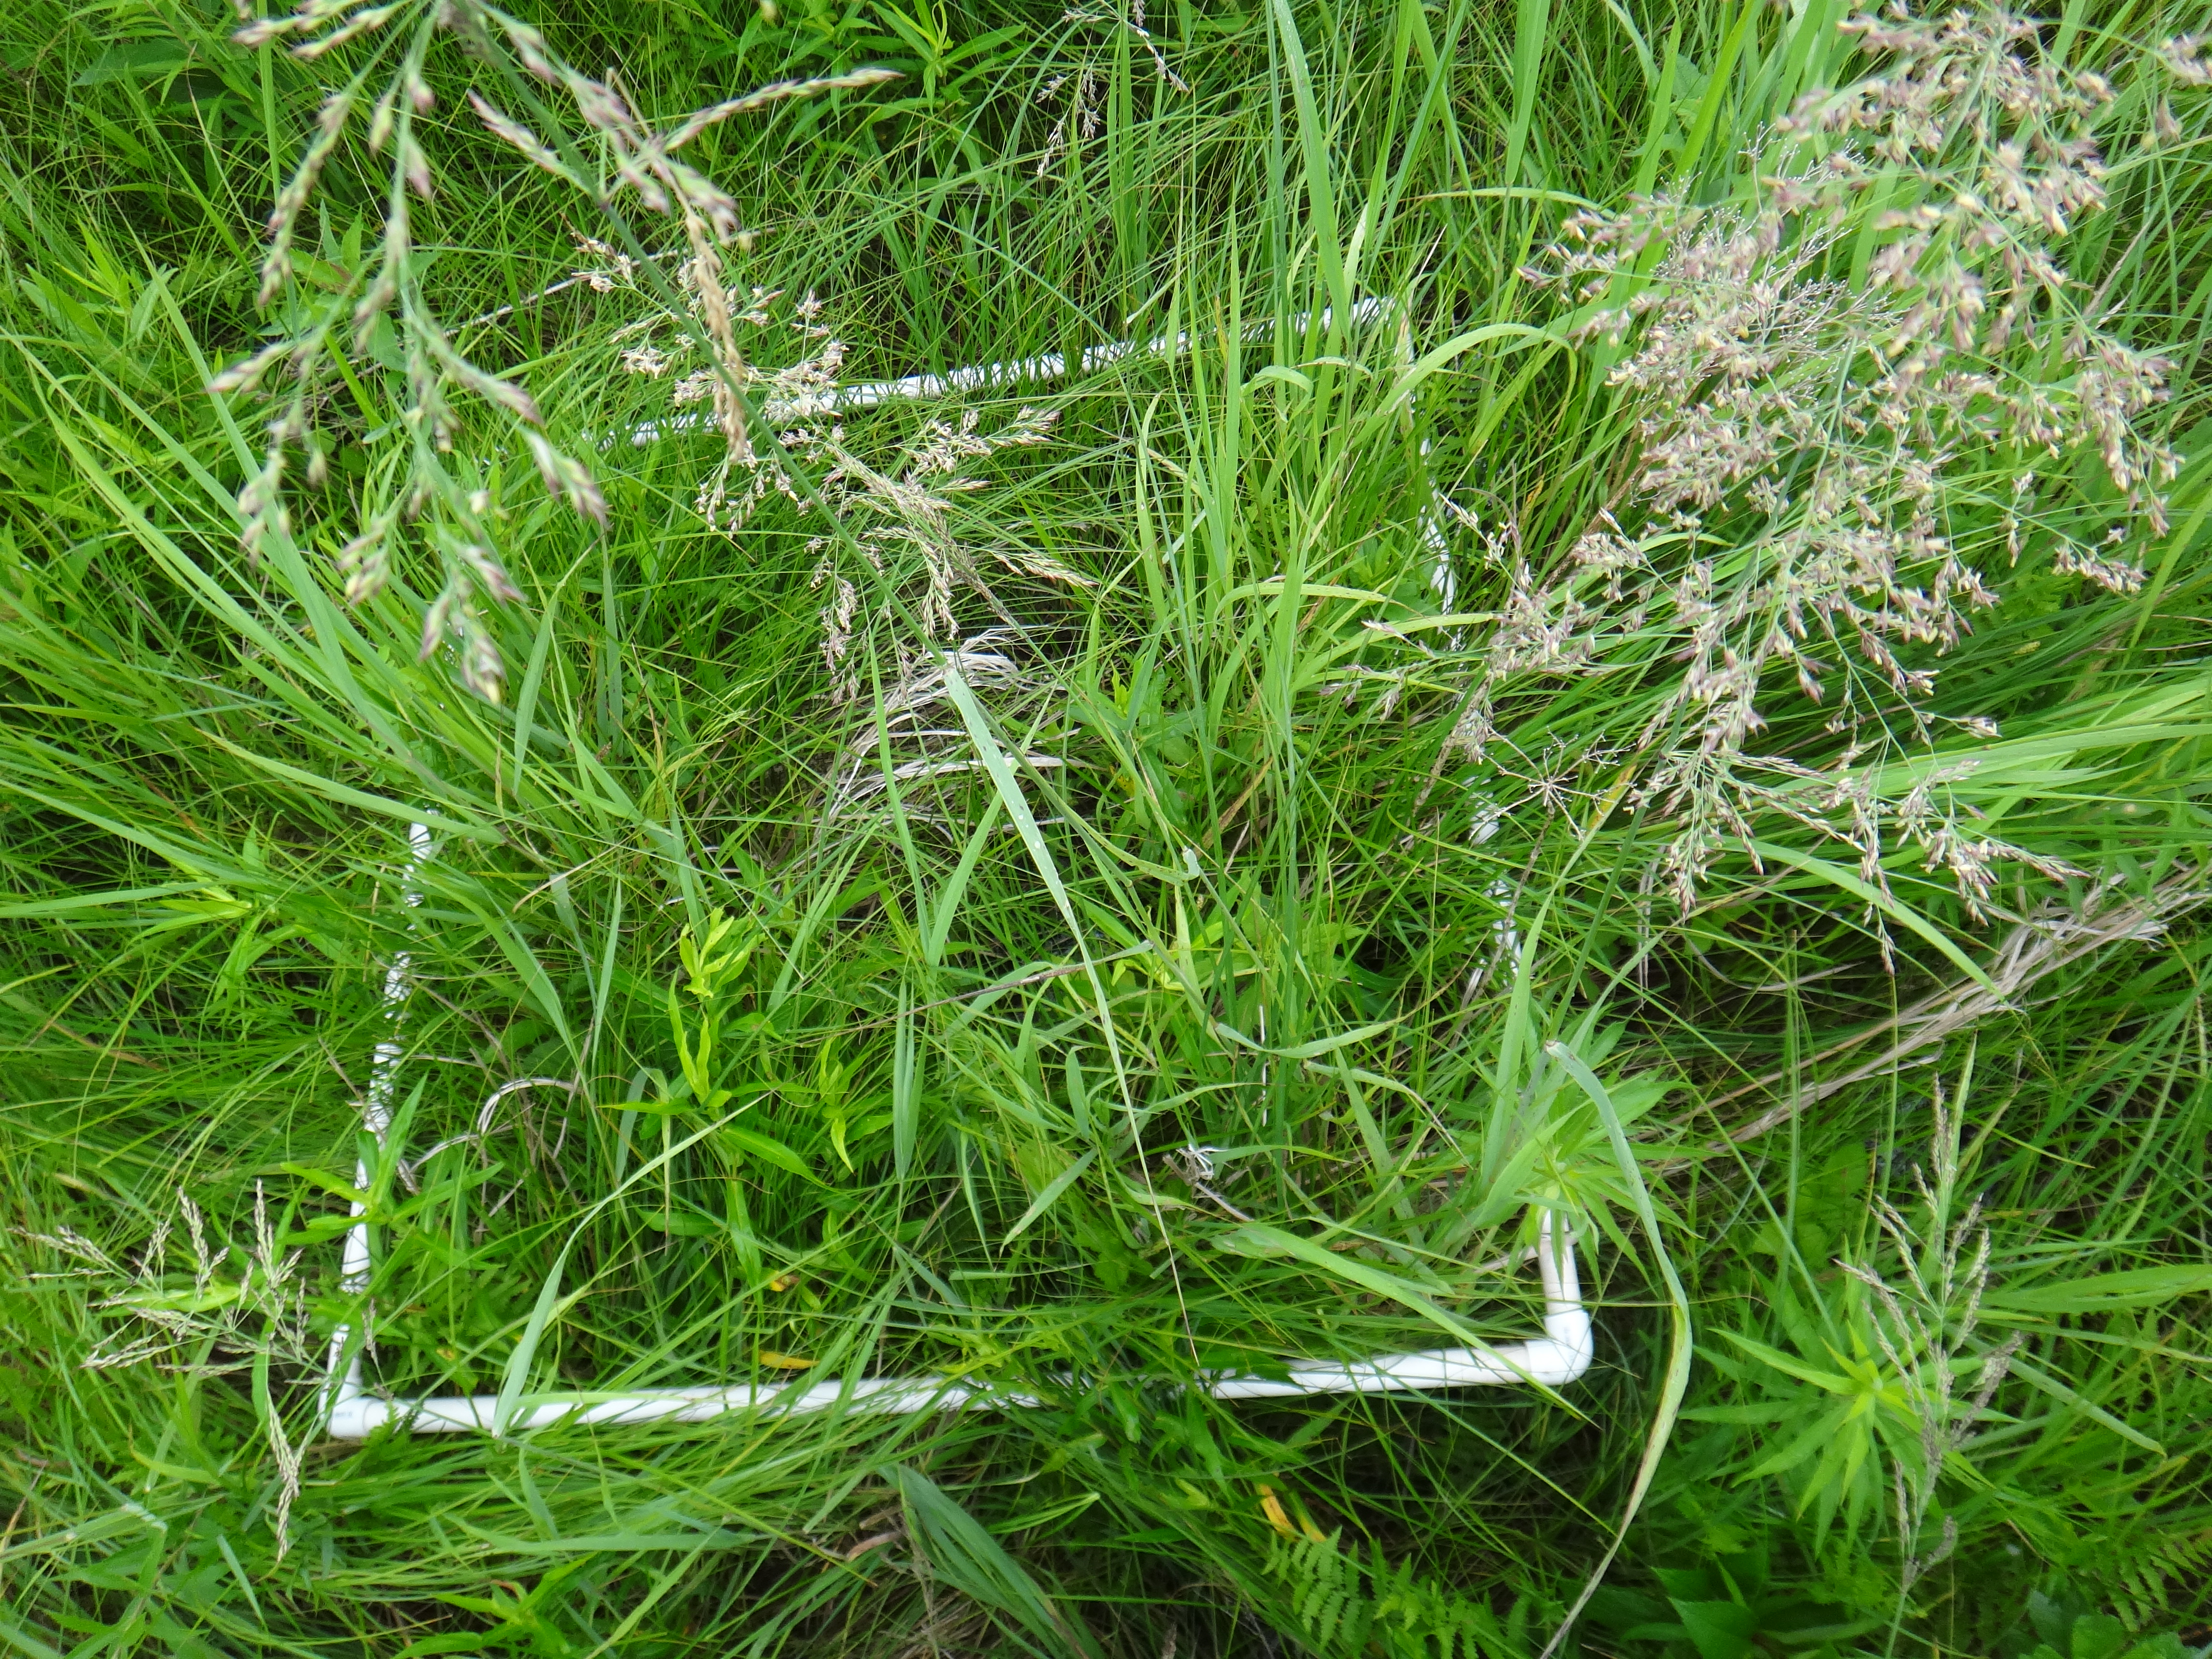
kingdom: Plantae
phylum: Tracheophyta
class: Liliopsida
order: Poales
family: Poaceae
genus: Agrostis
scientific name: Agrostis gigantea
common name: Black bent
